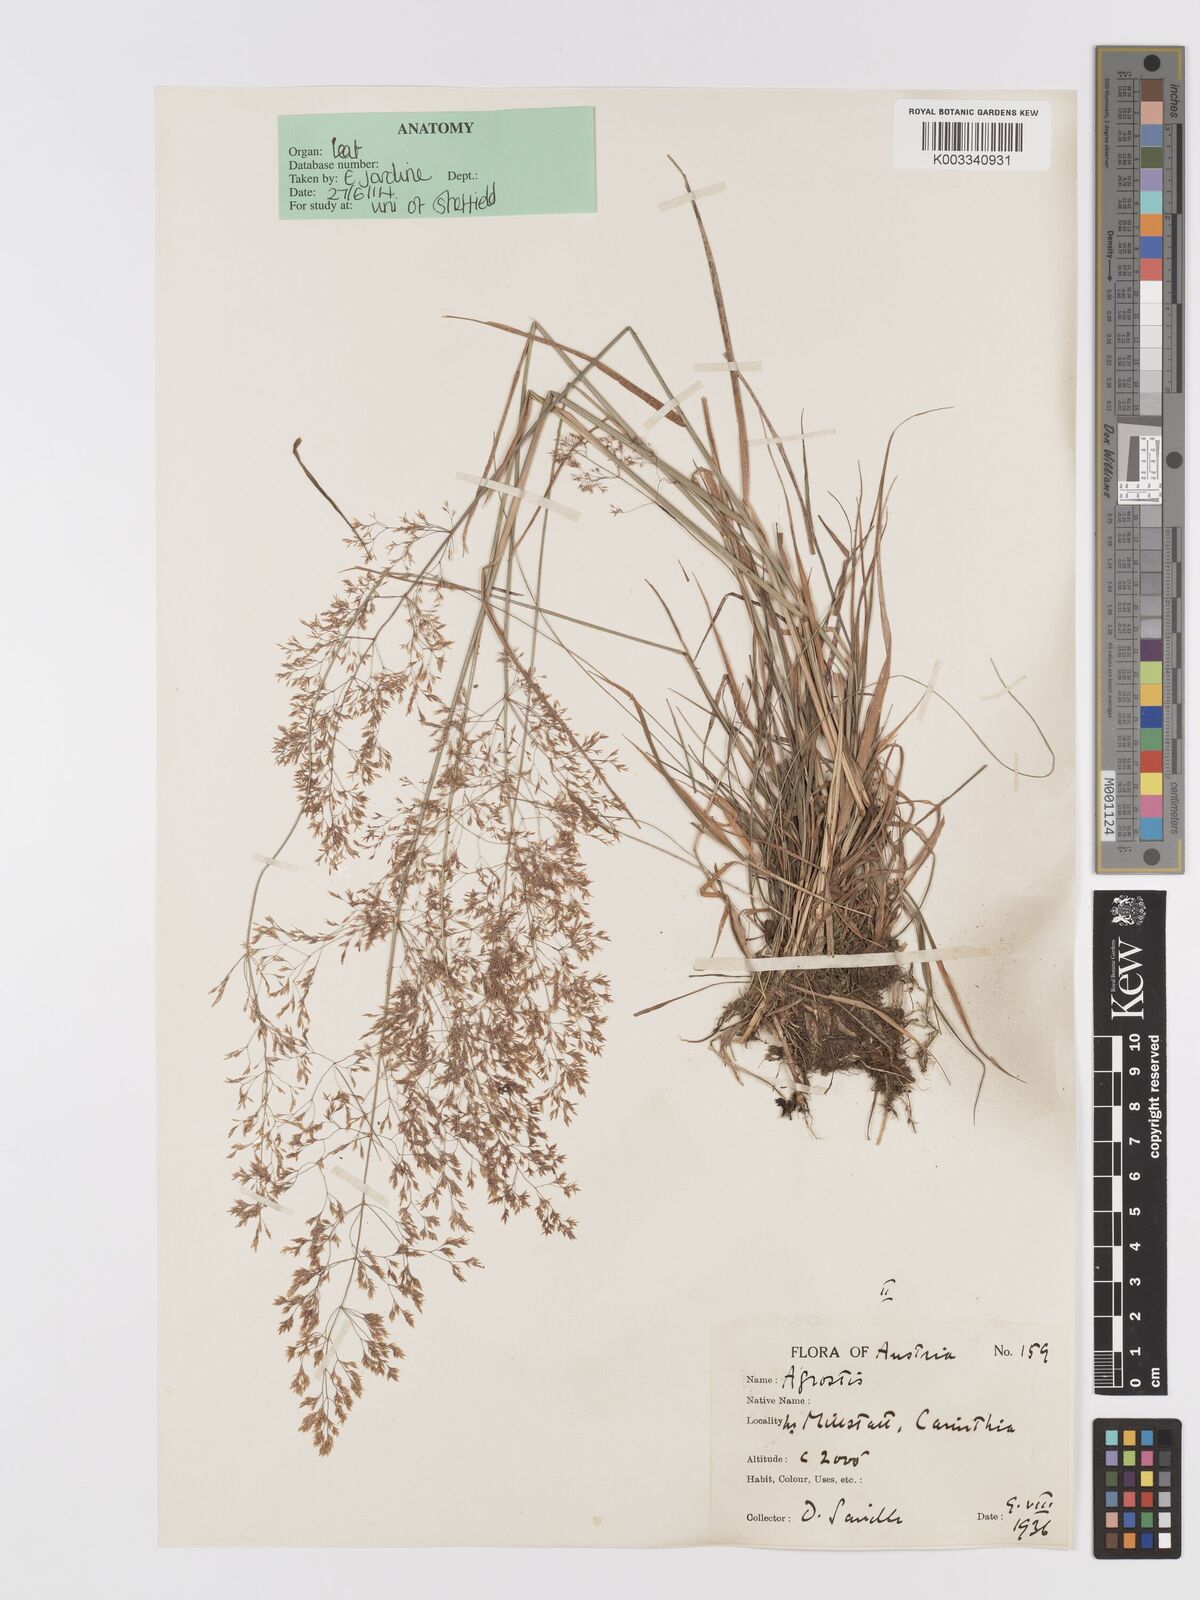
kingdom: Plantae
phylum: Tracheophyta
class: Liliopsida
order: Poales
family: Poaceae
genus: Agrostis
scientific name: Agrostis capillaris
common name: Colonial bentgrass
